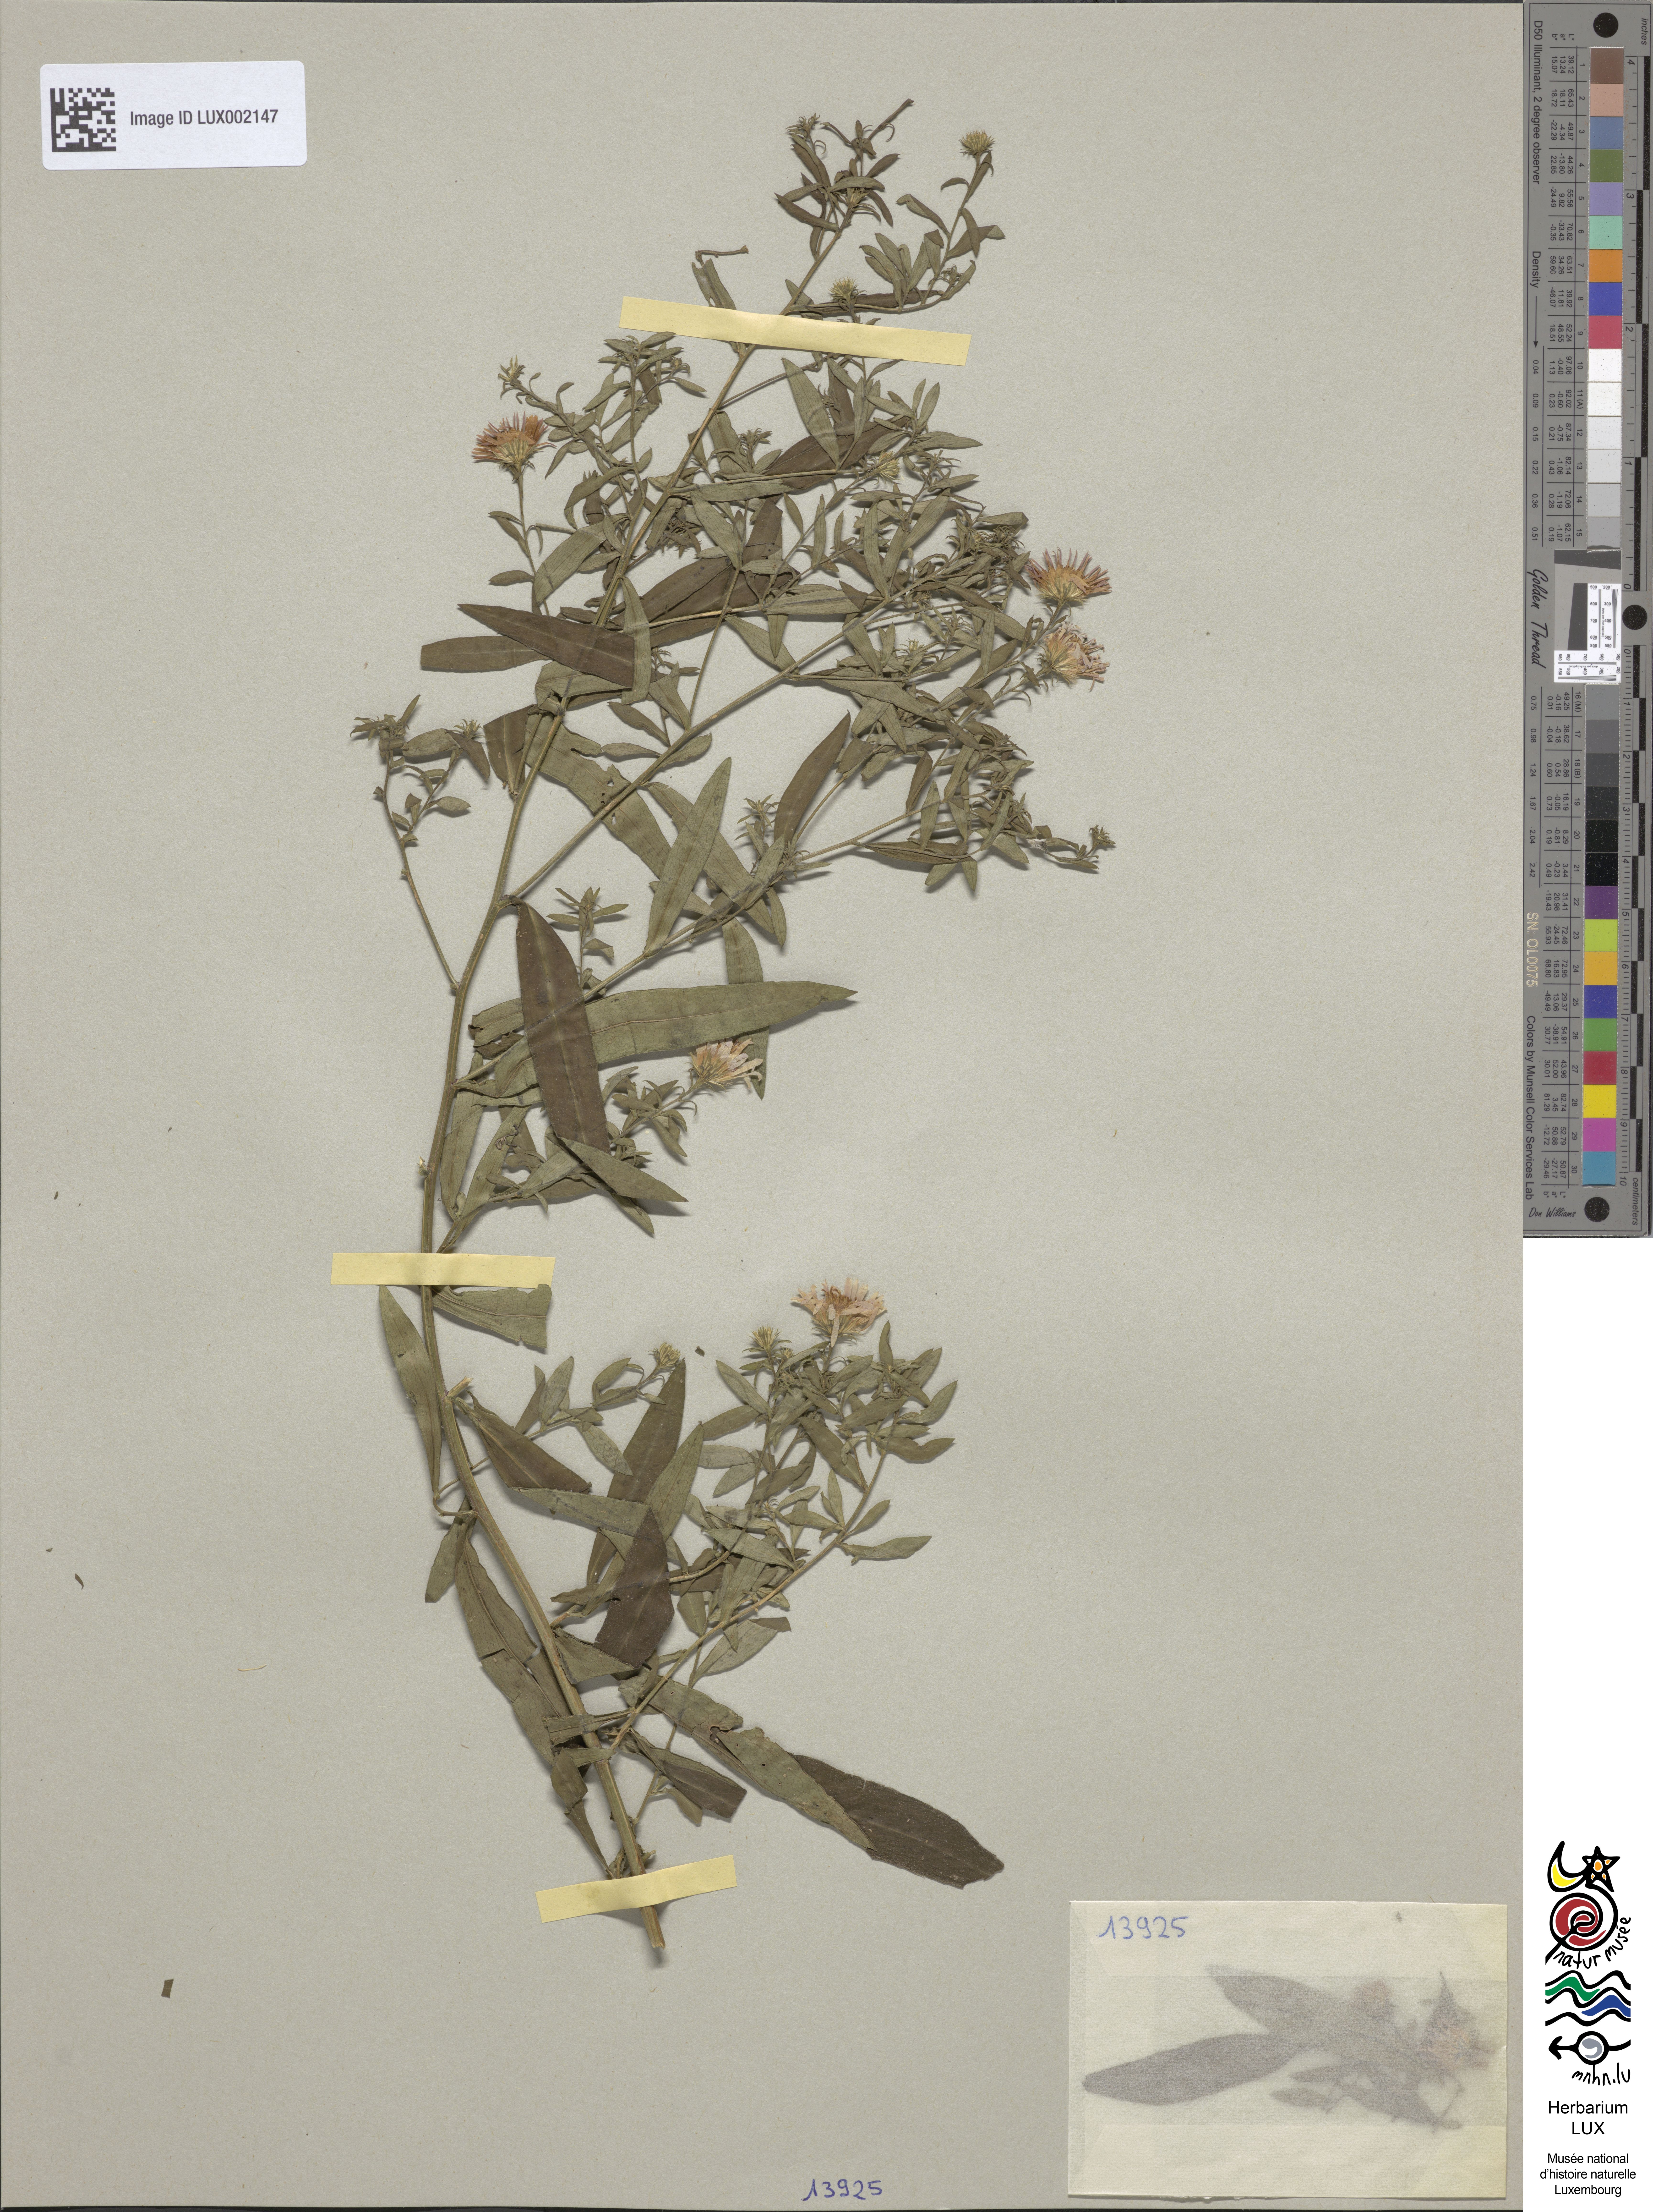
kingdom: Plantae
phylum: Tracheophyta
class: Magnoliopsida
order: Asterales
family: Asteraceae
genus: Symphyotrichum
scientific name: Symphyotrichum salignum
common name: Common michaelmas daisy
